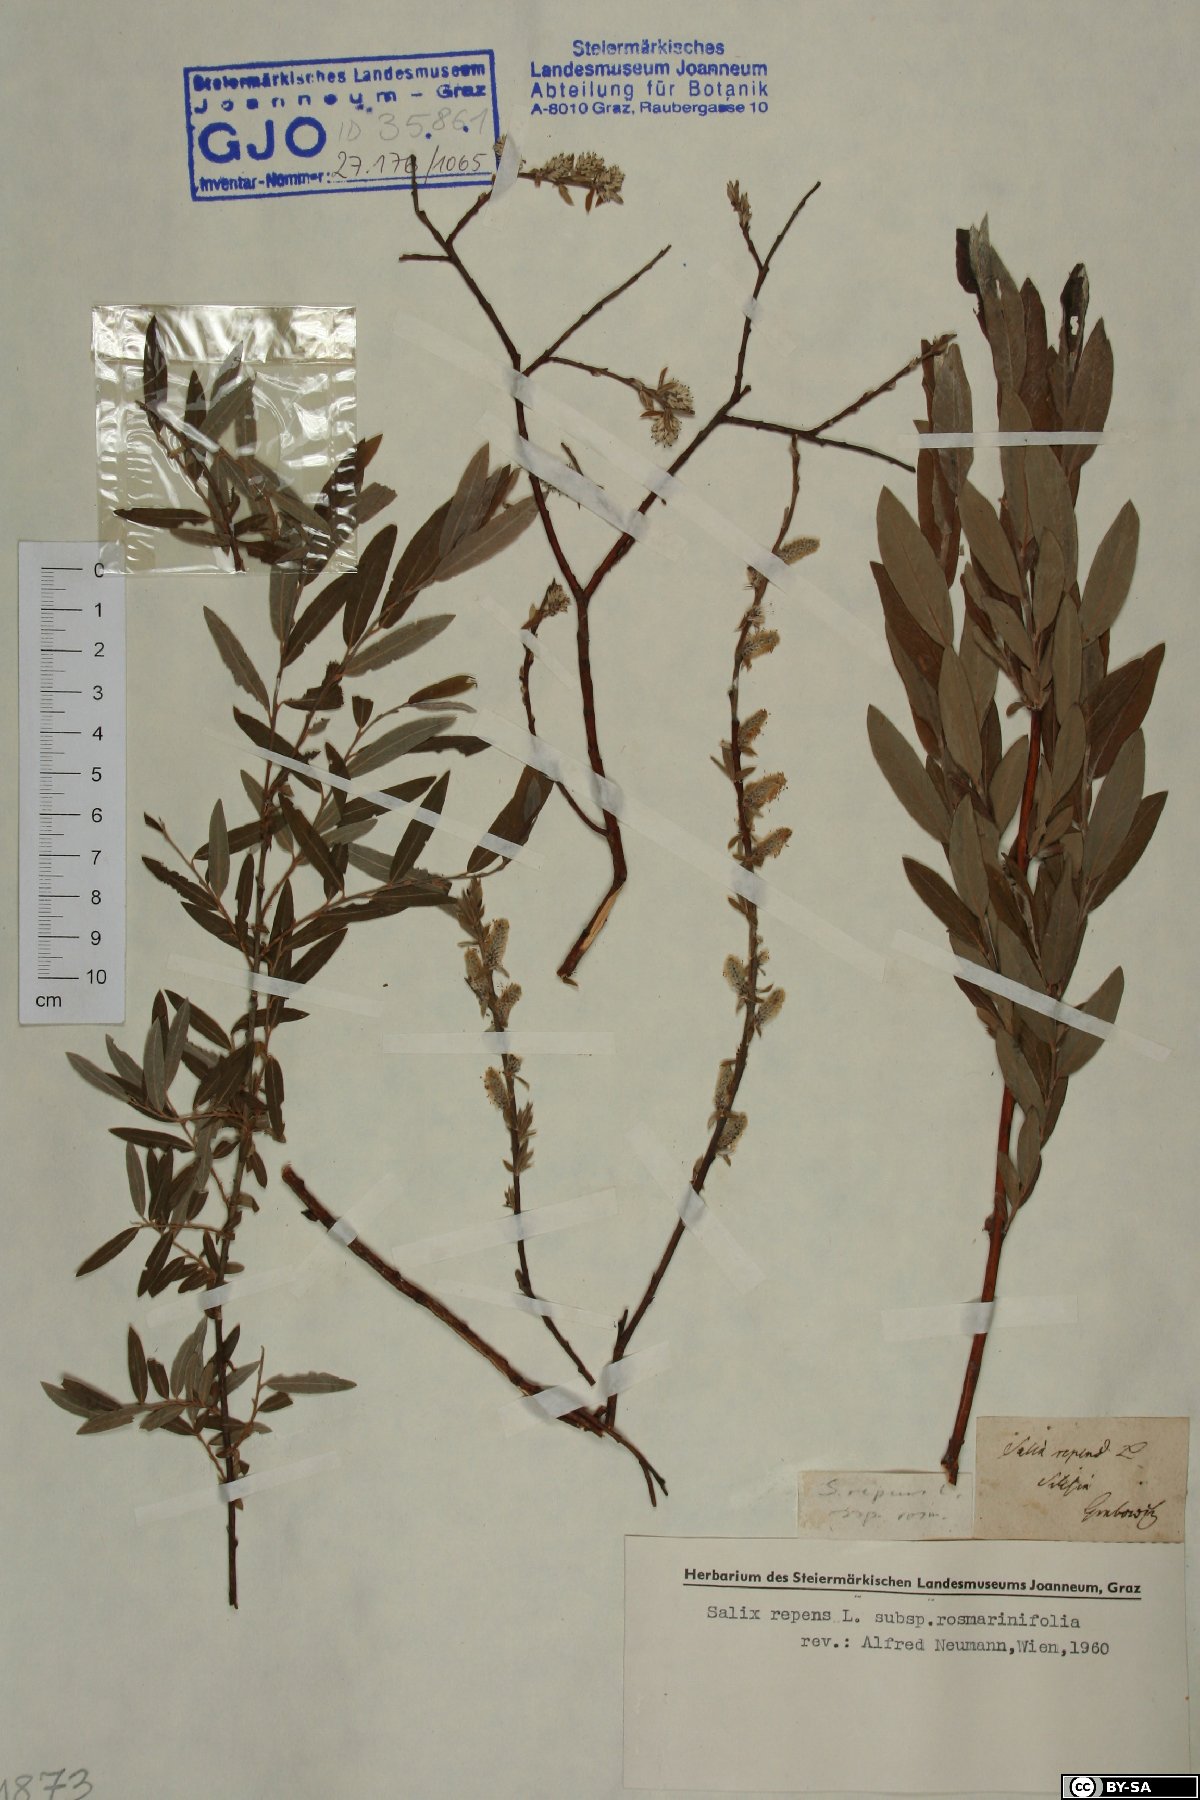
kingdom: Plantae
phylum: Tracheophyta
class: Magnoliopsida
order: Malpighiales
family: Salicaceae
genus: Salix
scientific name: Salix repens
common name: Creeping willow
